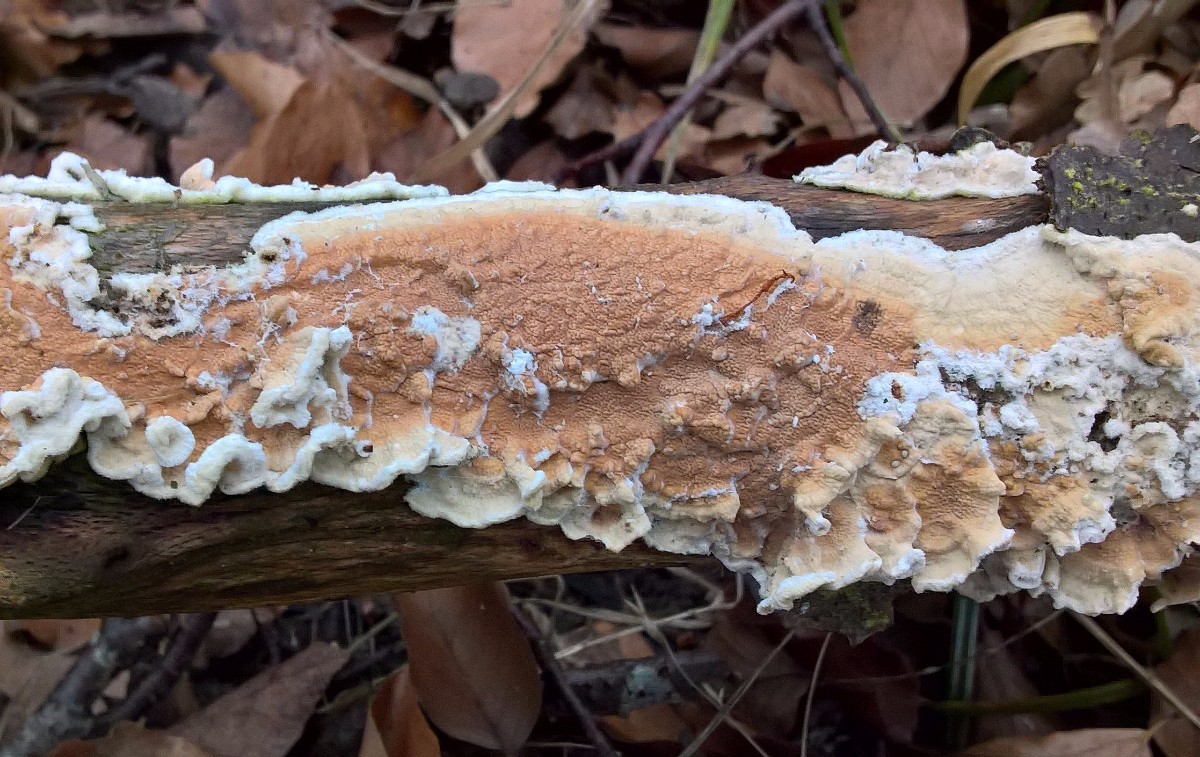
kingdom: Fungi
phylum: Basidiomycota
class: Agaricomycetes
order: Polyporales
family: Irpicaceae
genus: Byssomerulius
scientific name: Byssomerulius corium
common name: læder-åresvamp
